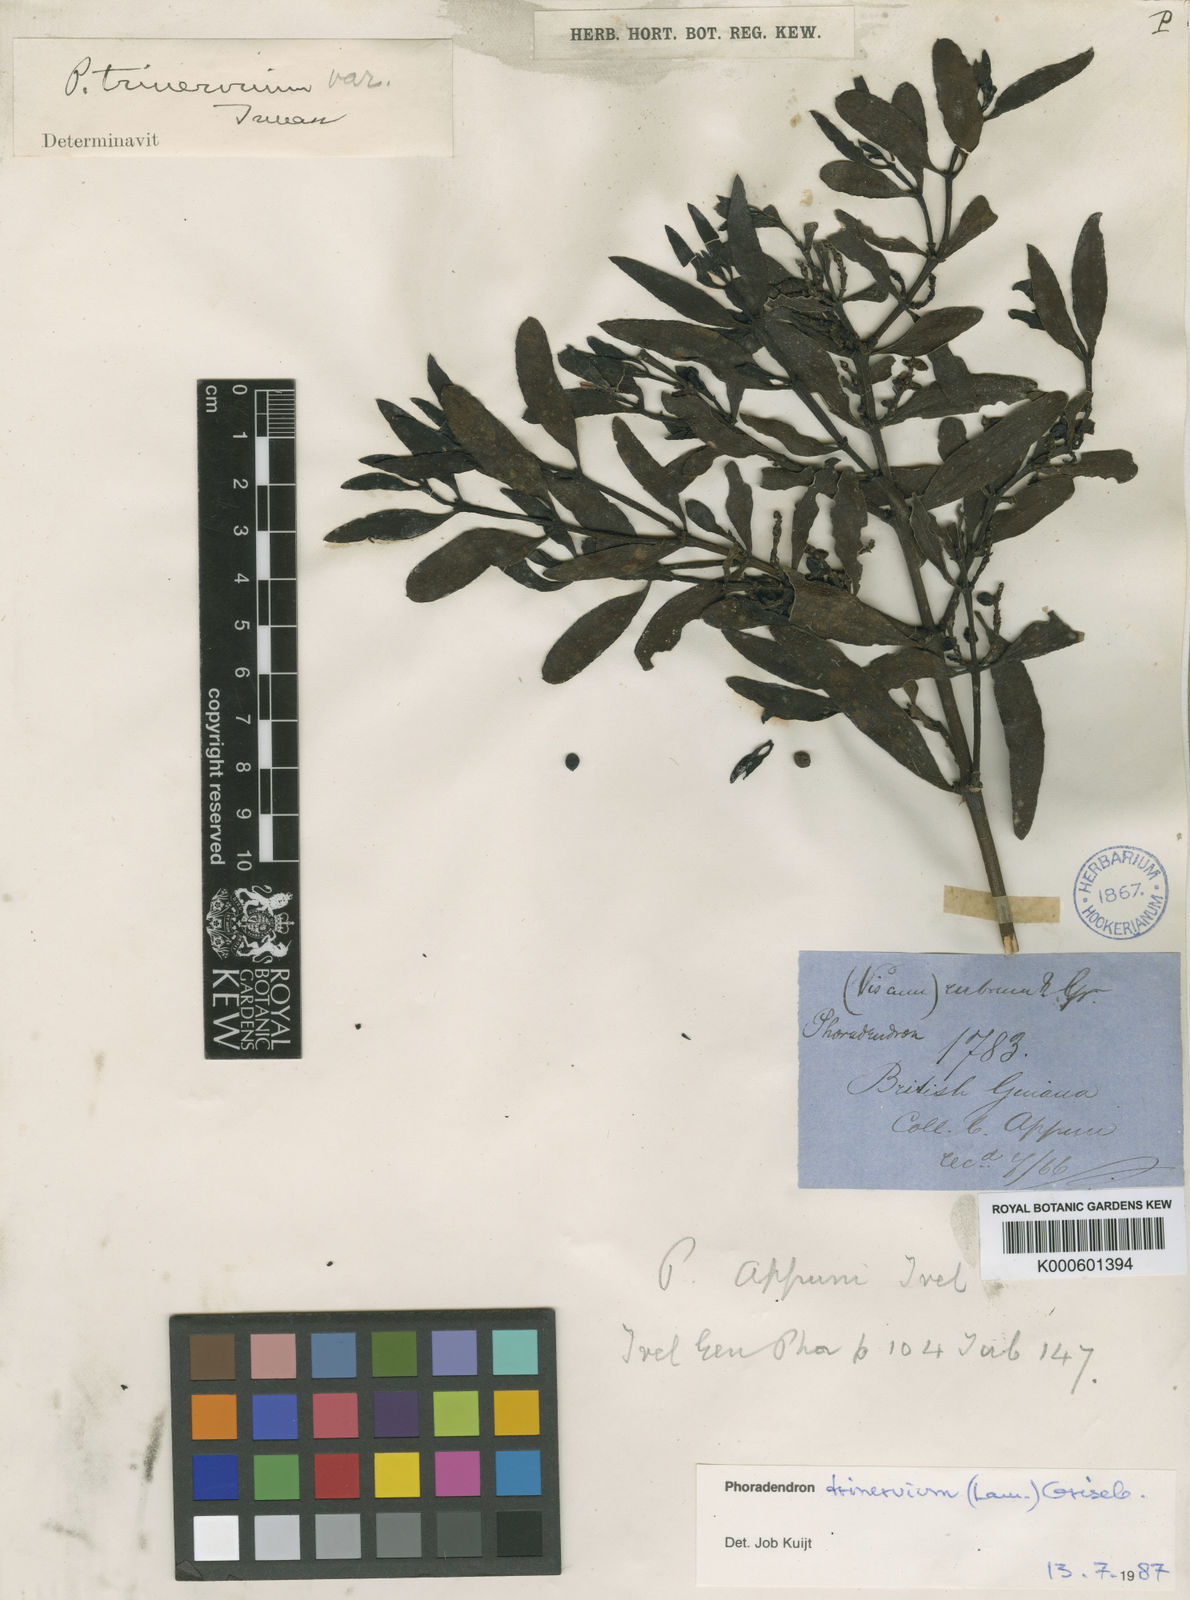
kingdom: Plantae
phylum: Tracheophyta
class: Magnoliopsida
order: Santalales
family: Viscaceae
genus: Phoradendron
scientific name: Phoradendron trinervium
